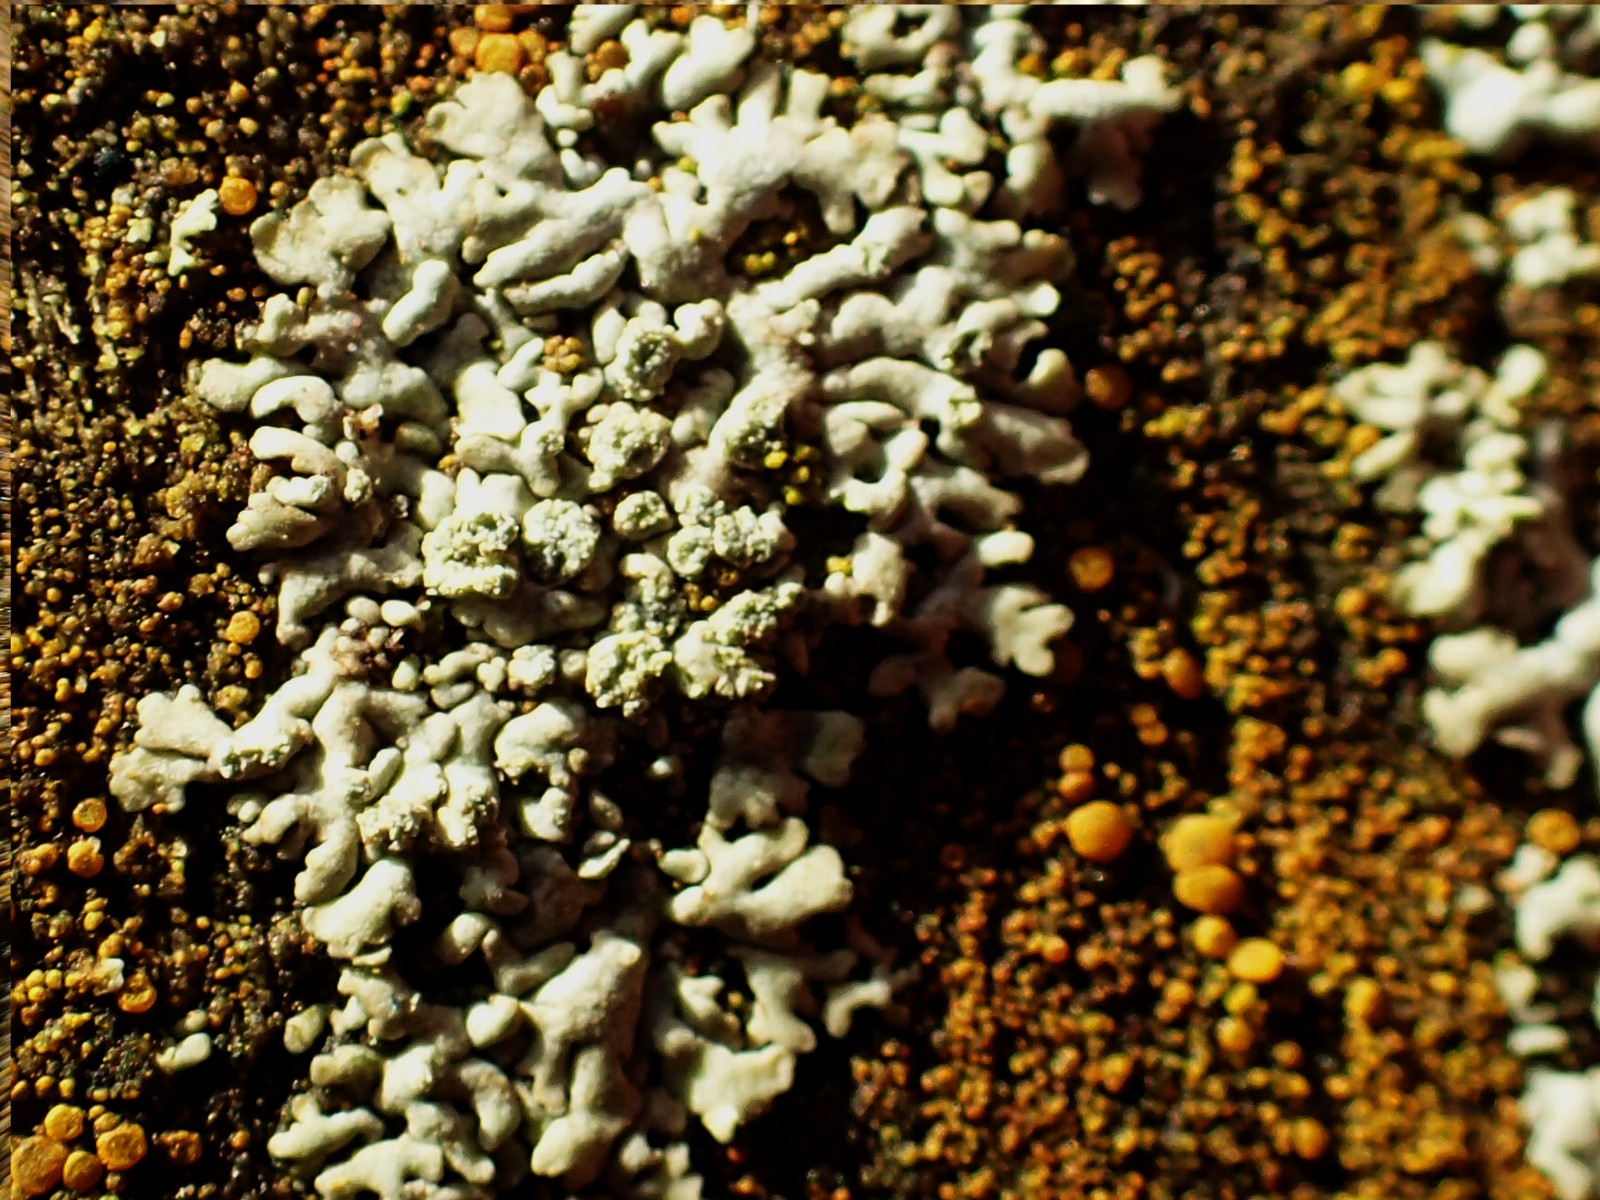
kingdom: Fungi
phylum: Ascomycota
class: Lecanoromycetes
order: Lecanorales
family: Parmeliaceae
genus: Hypogymnia
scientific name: Hypogymnia physodes
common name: almindelig kvistlav
